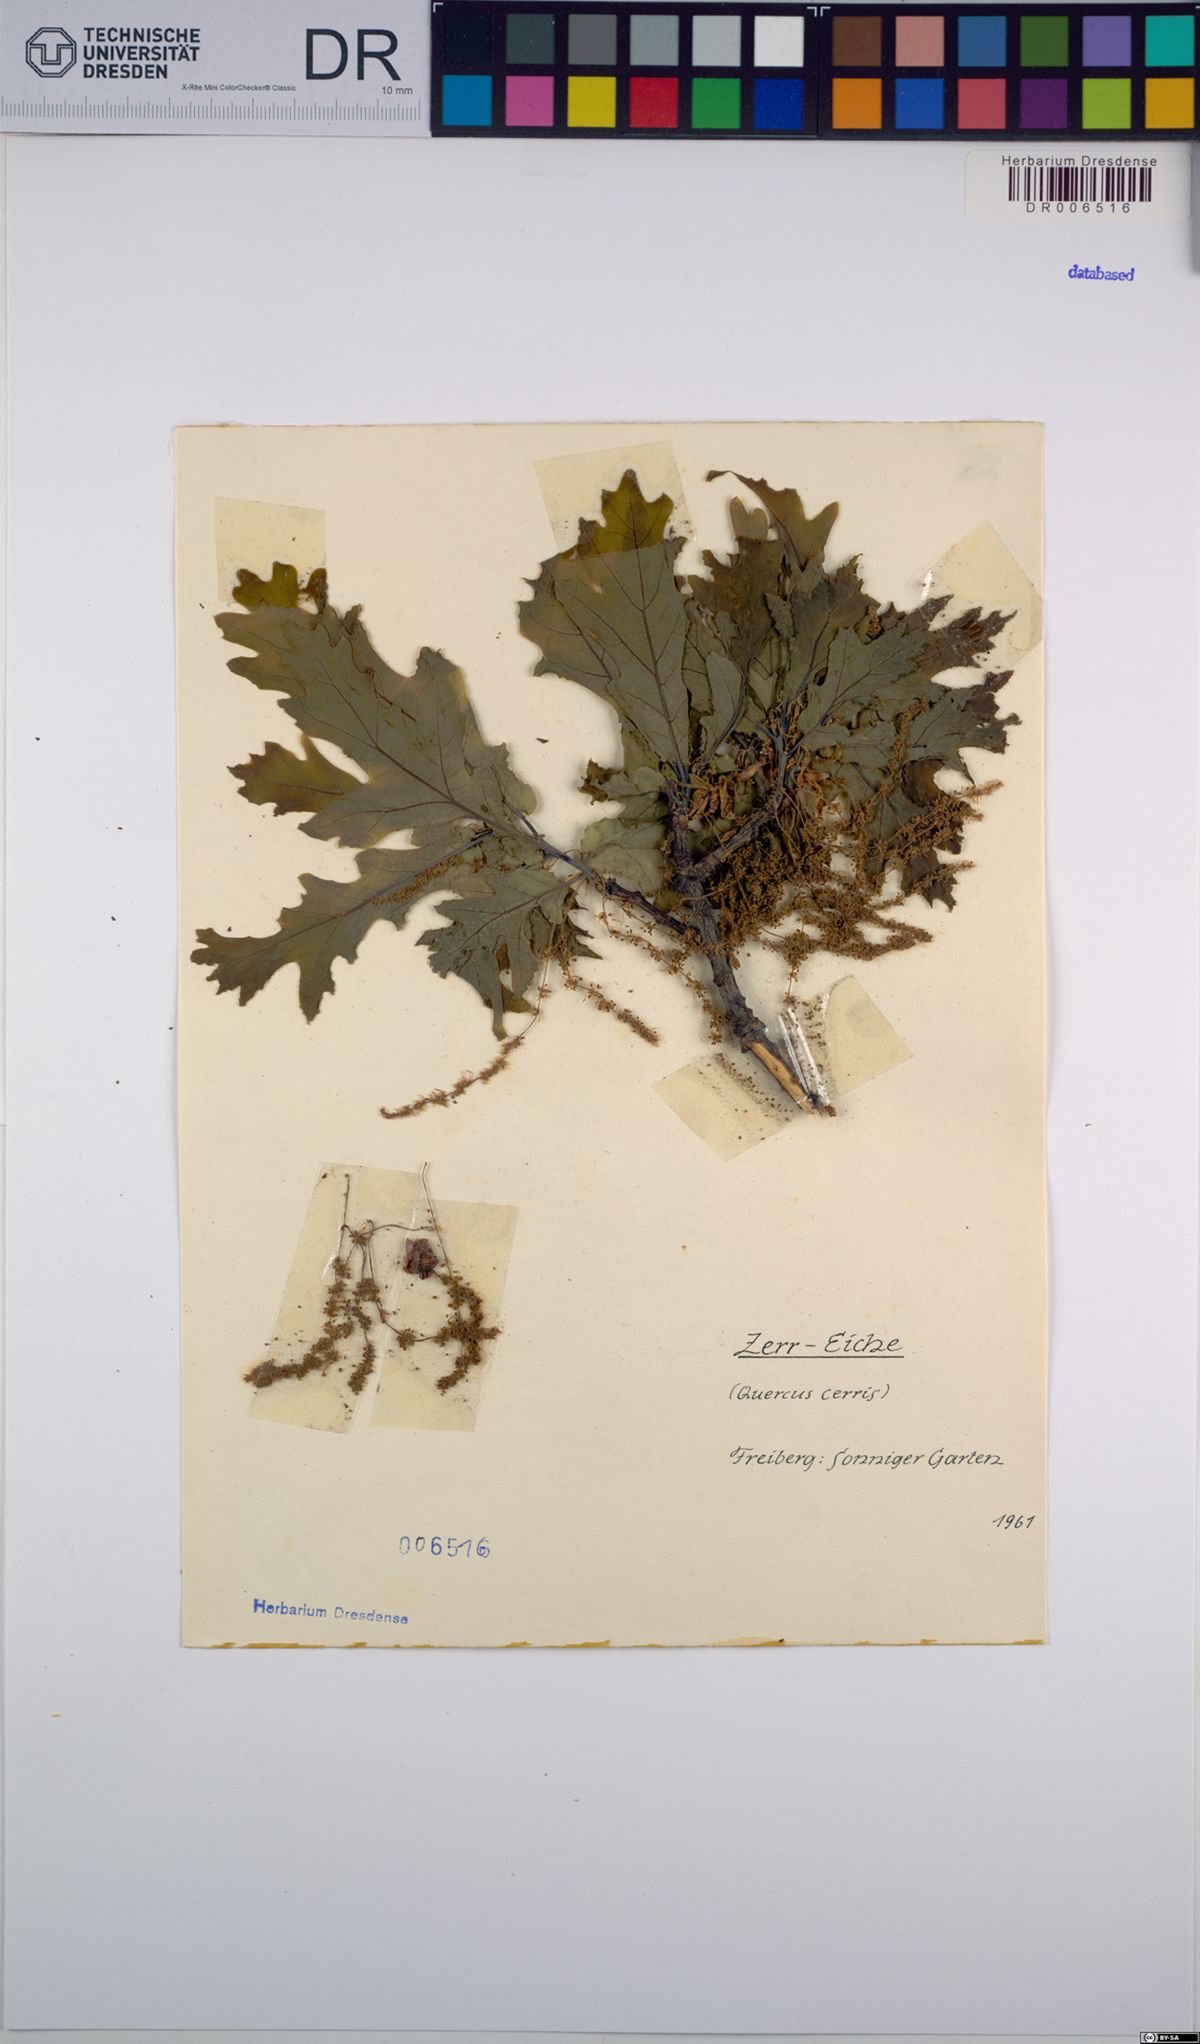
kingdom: Plantae
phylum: Tracheophyta
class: Magnoliopsida
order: Fagales
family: Fagaceae
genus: Quercus
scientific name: Quercus cerris
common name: Turkey oak
